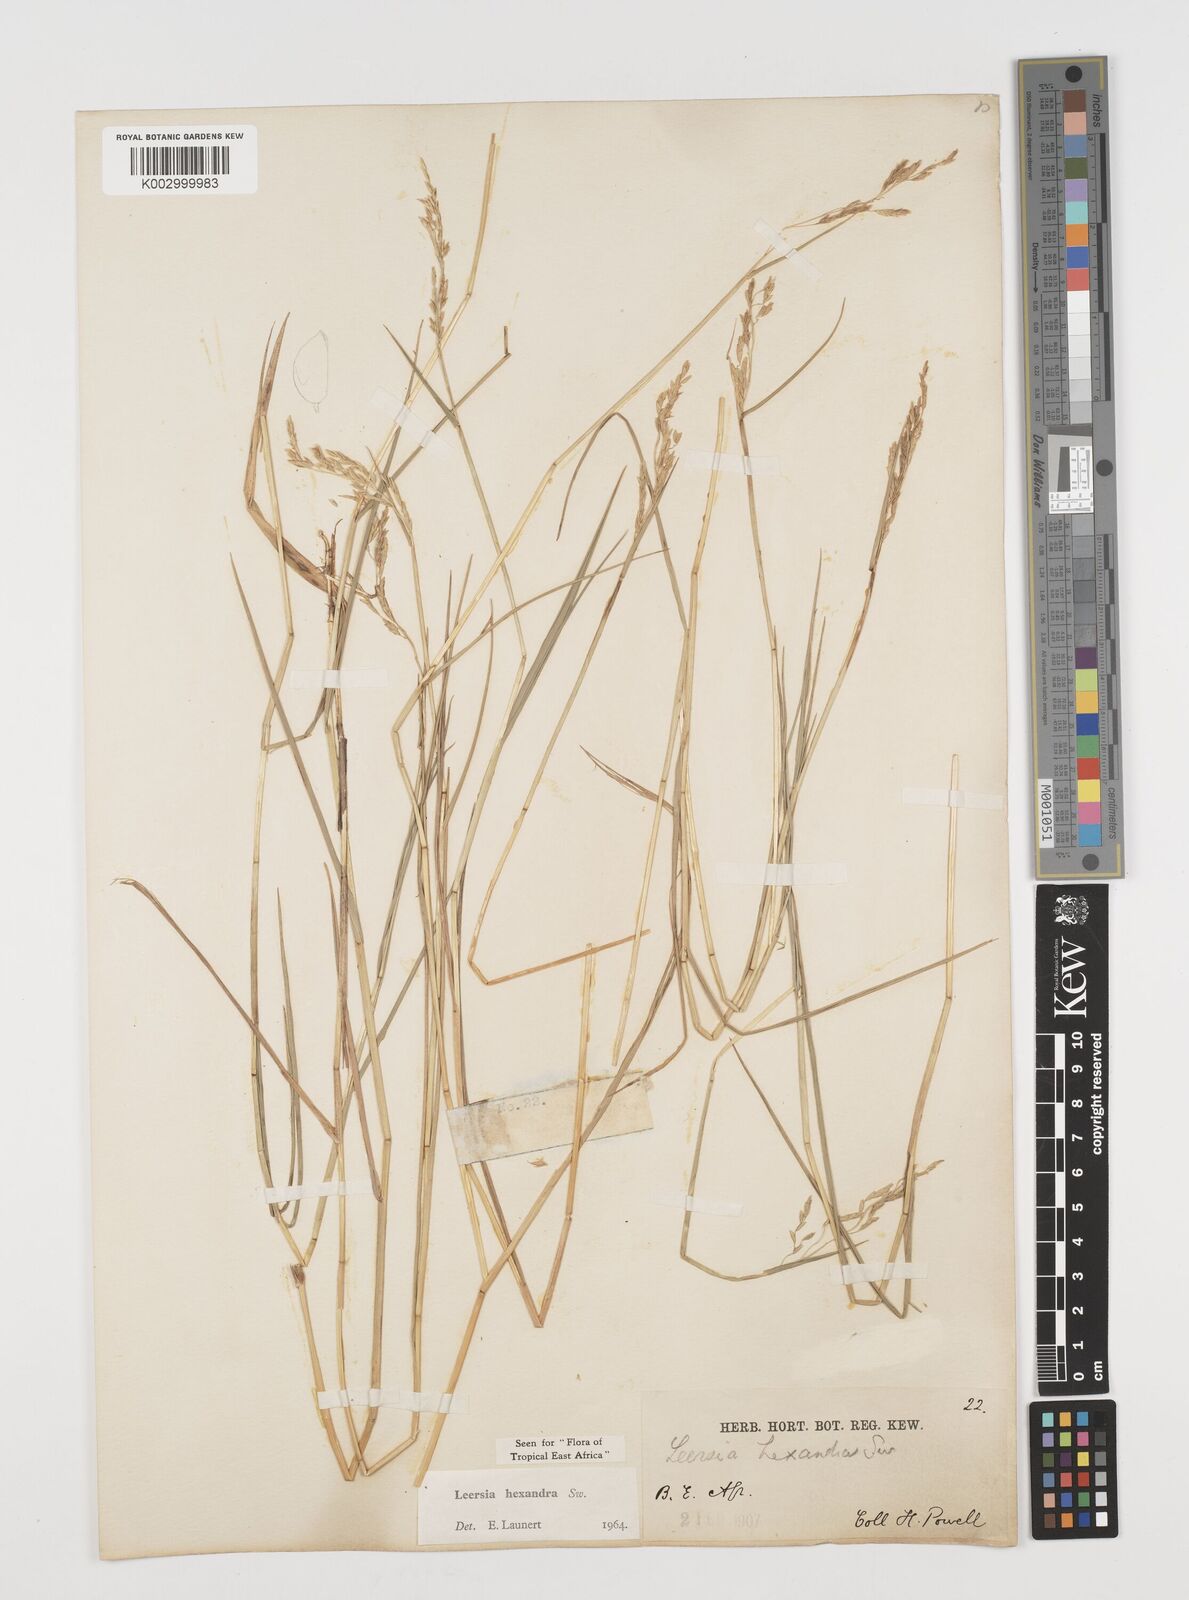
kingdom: Plantae
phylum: Tracheophyta
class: Liliopsida
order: Poales
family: Poaceae
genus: Leersia
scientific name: Leersia hexandra
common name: Southern cut grass
